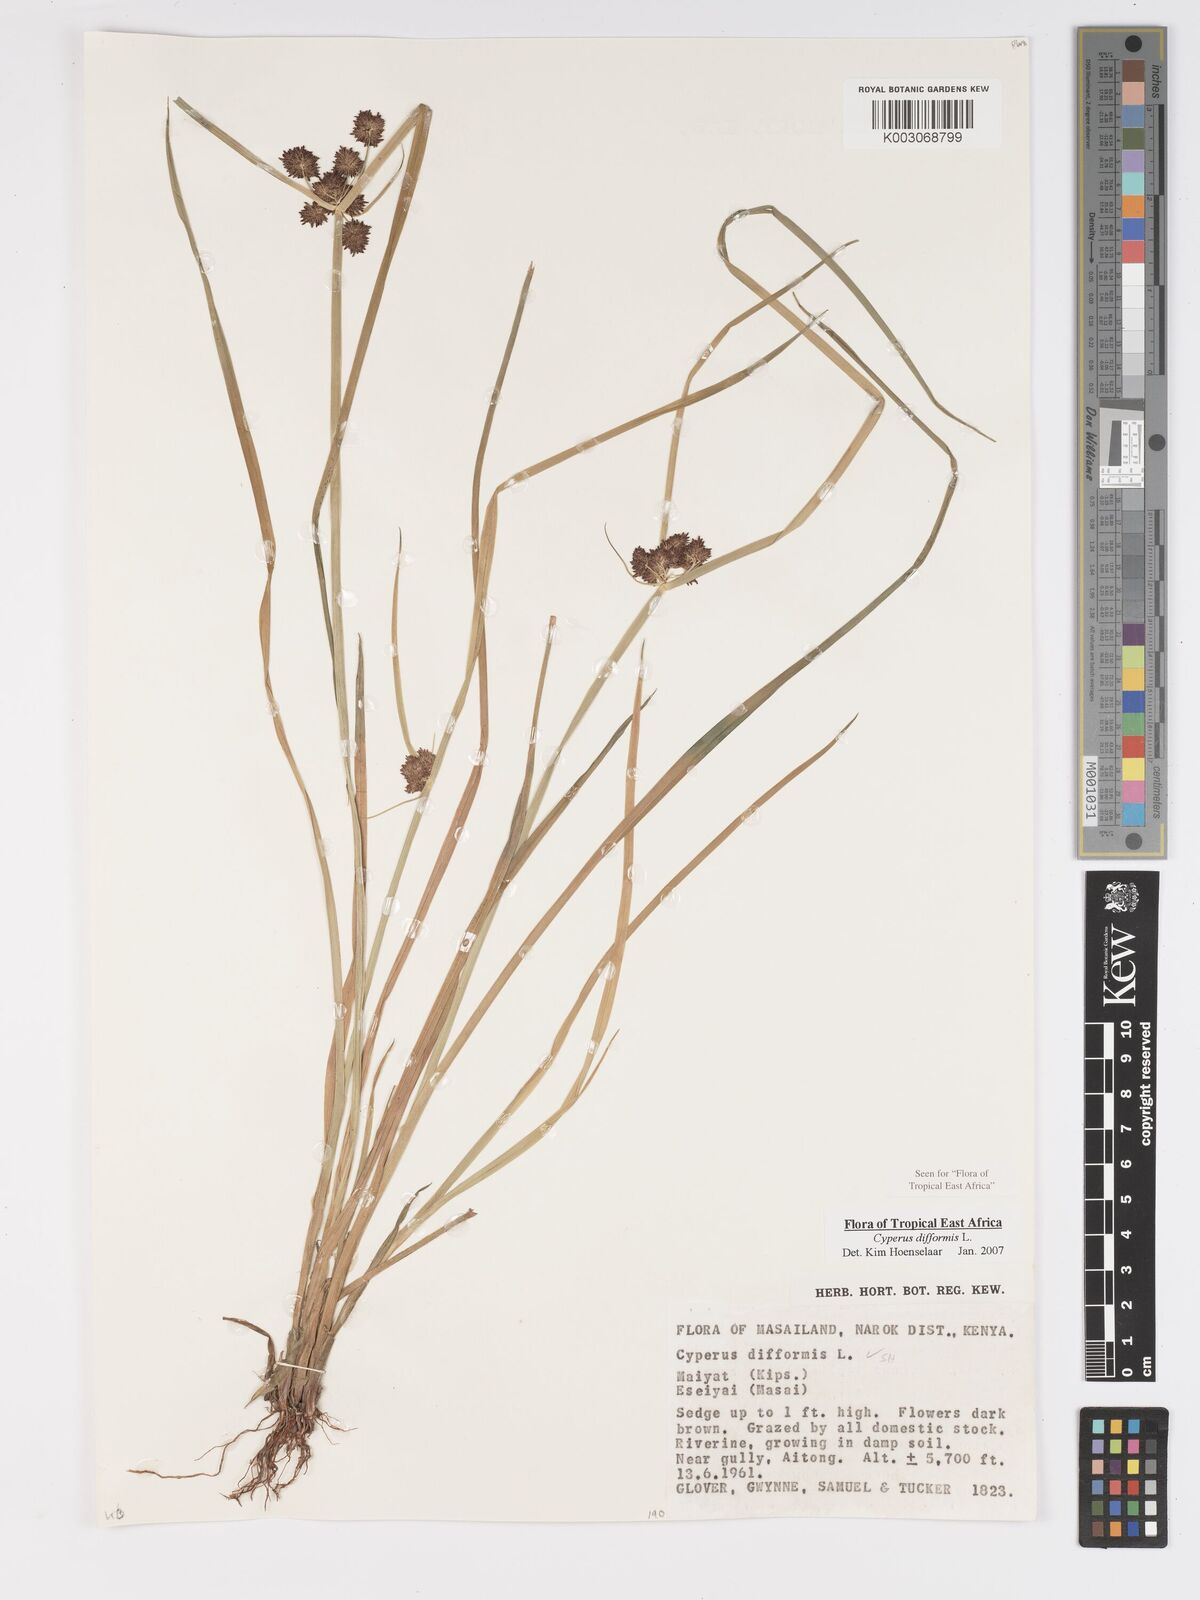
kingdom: Plantae
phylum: Tracheophyta
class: Liliopsida
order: Poales
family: Cyperaceae
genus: Cyperus
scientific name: Cyperus difformis
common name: Variable flatsedge
